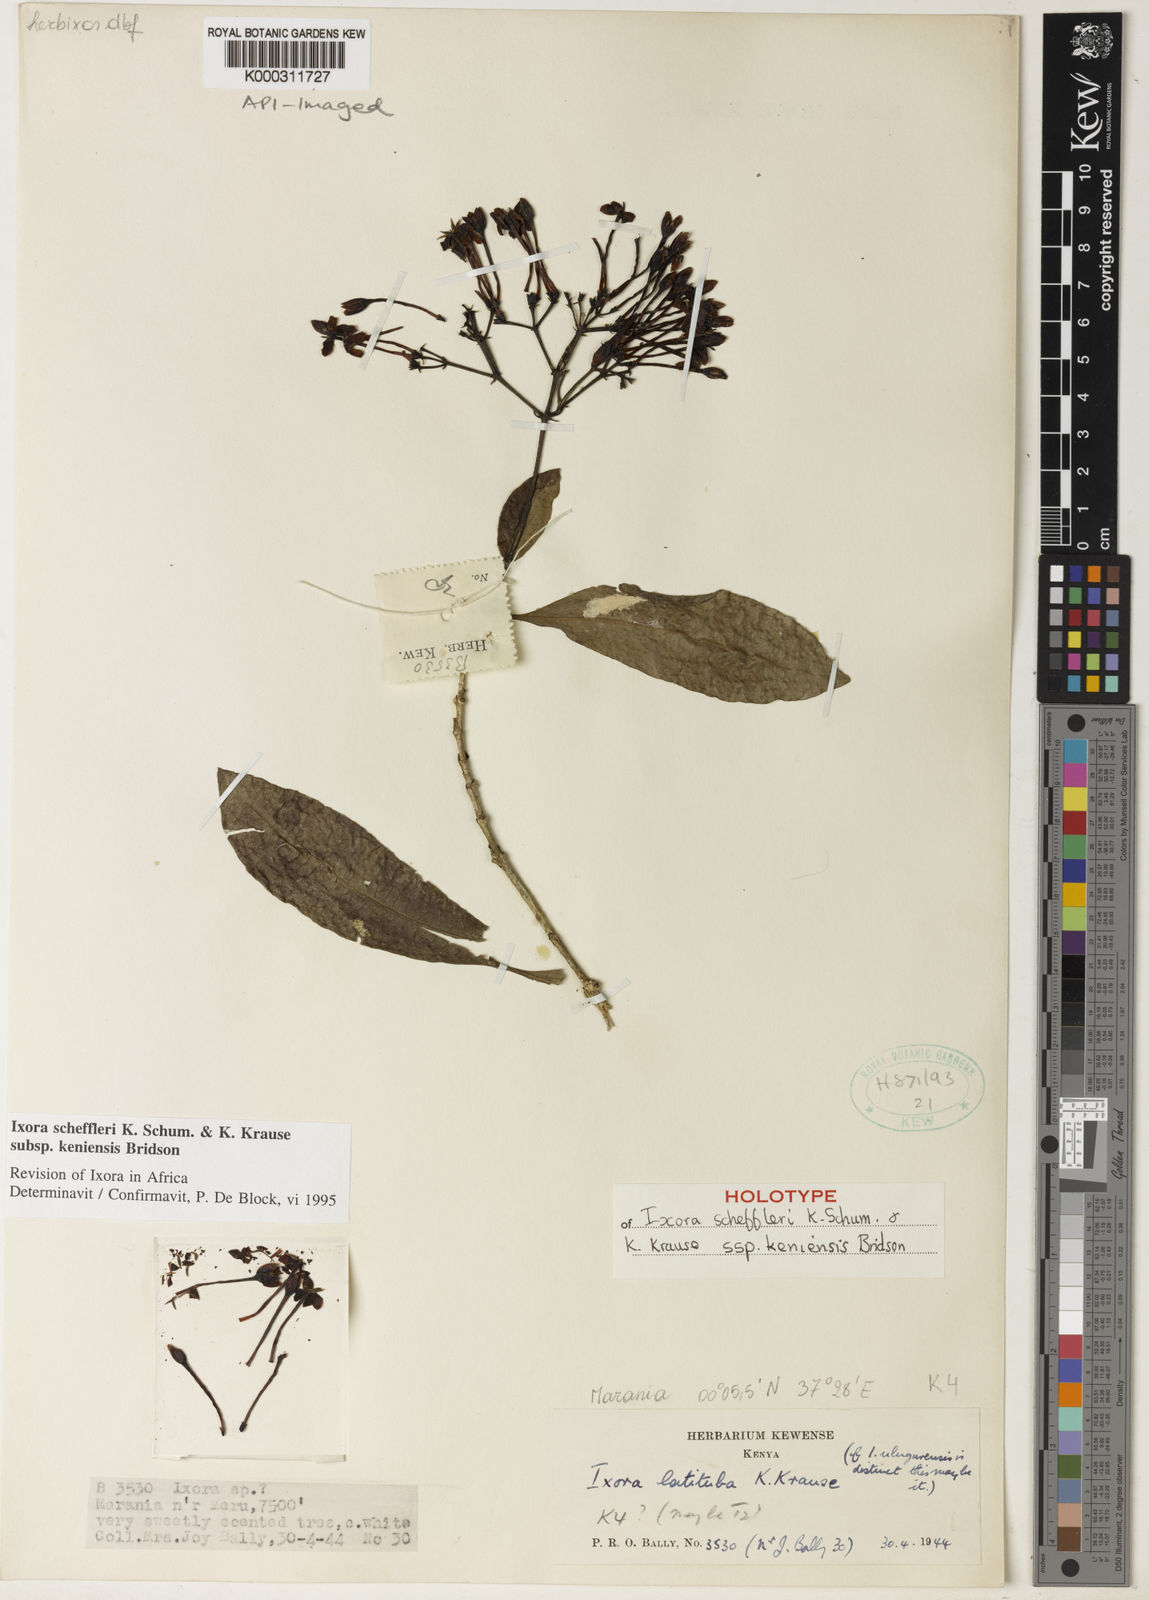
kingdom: Plantae
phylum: Tracheophyta
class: Magnoliopsida
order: Gentianales
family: Rubiaceae
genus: Ixora
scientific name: Ixora scheffleri
